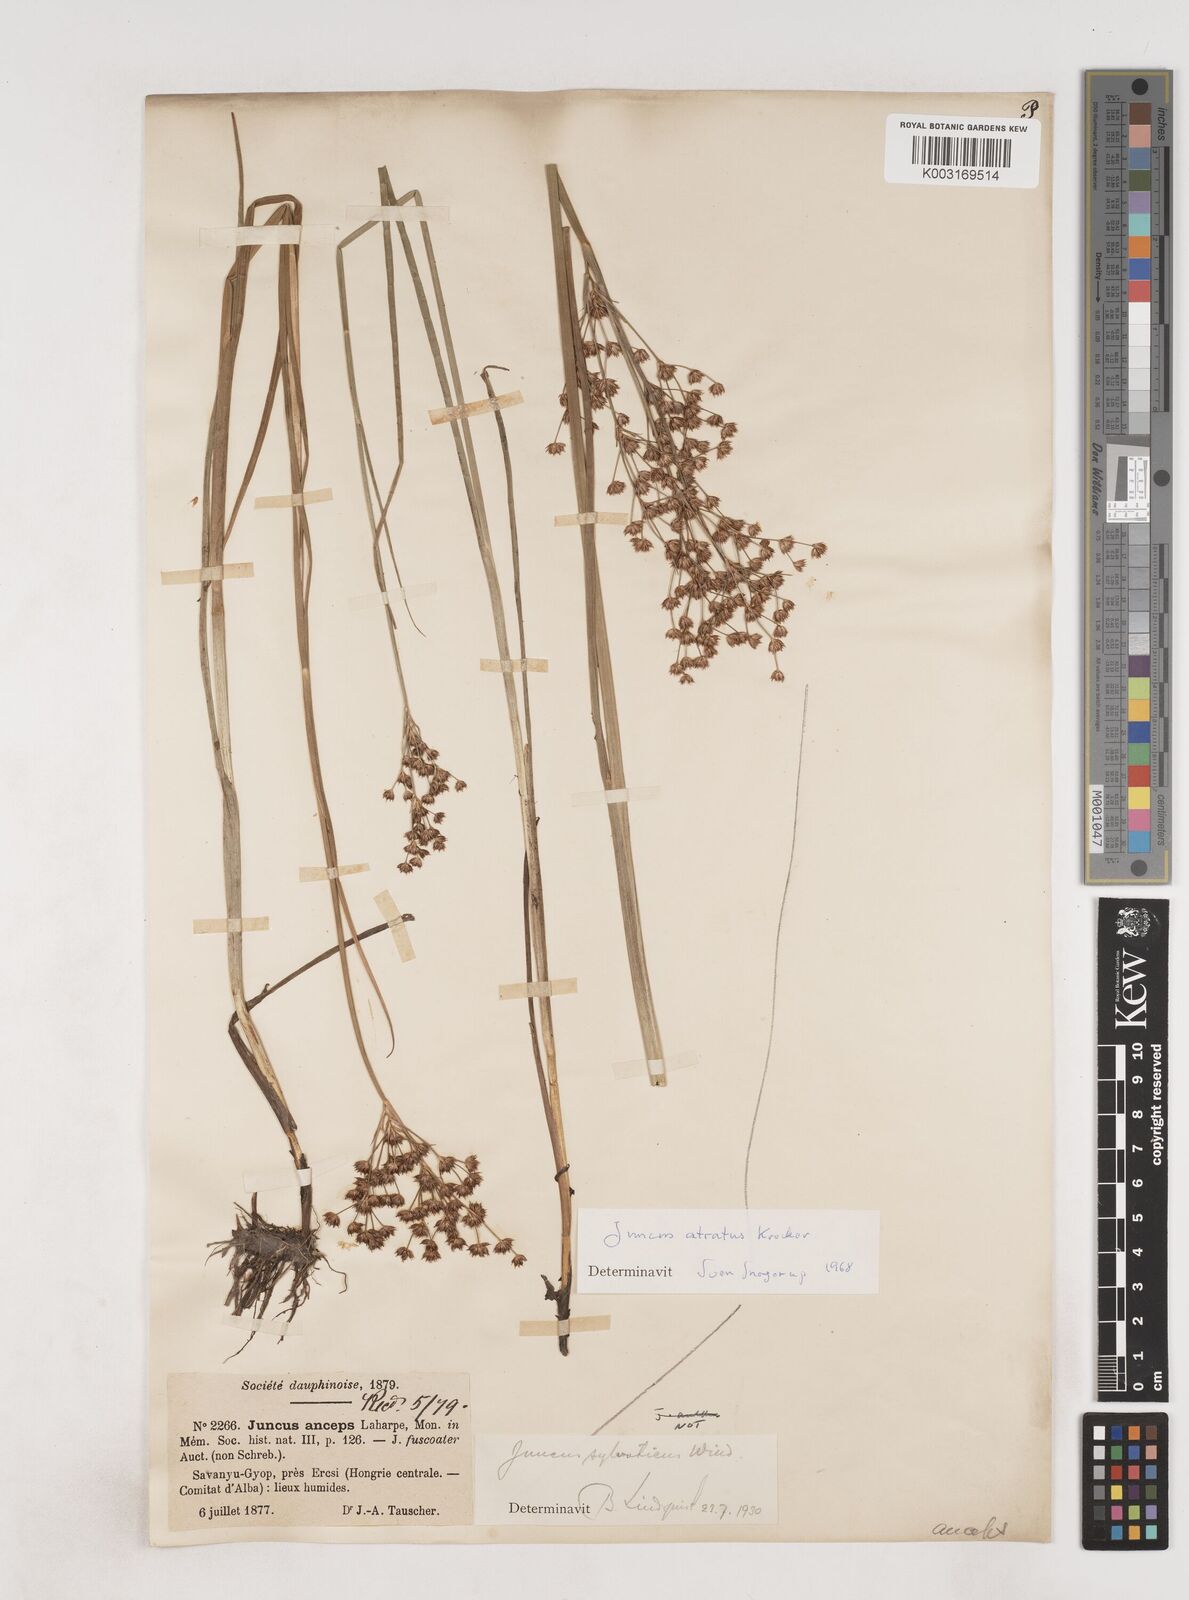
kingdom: Plantae
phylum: Tracheophyta
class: Liliopsida
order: Poales
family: Juncaceae
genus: Juncus
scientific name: Juncus atratus
